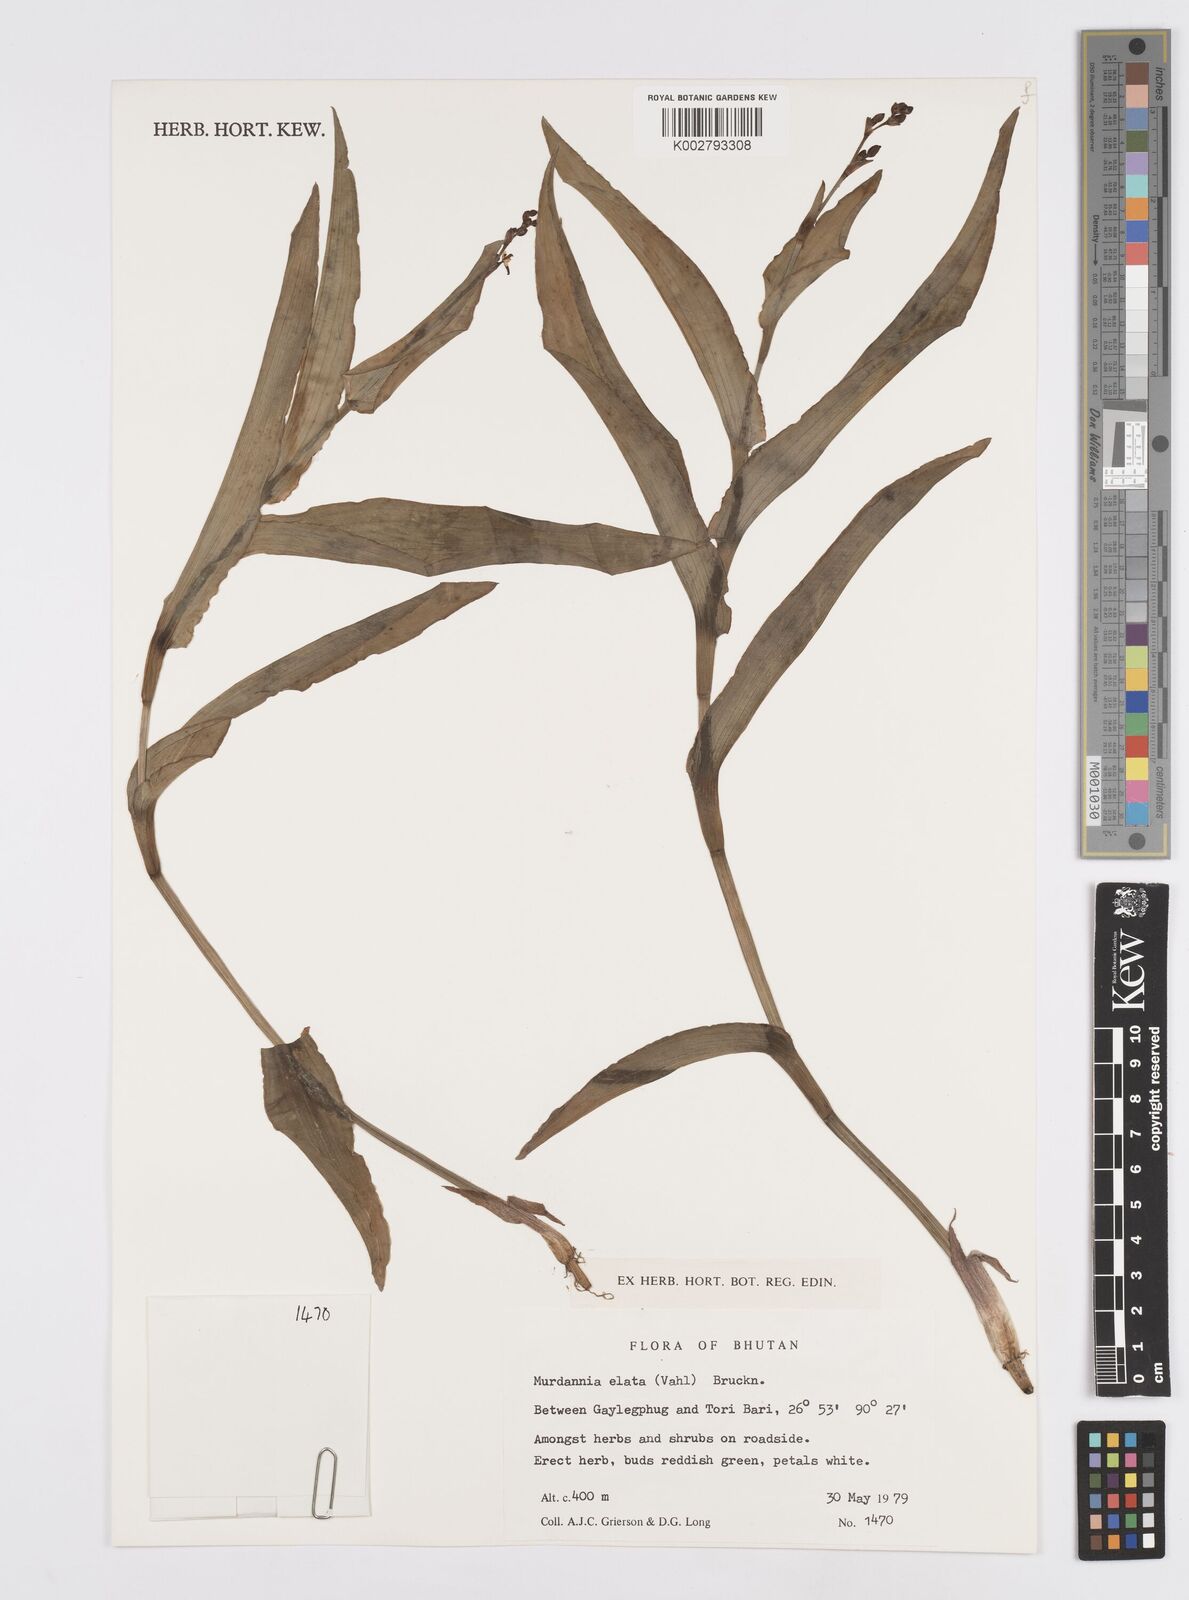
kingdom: Plantae
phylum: Tracheophyta
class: Liliopsida
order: Commelinales
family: Commelinaceae
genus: Murdannia
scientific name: Murdannia japonica
